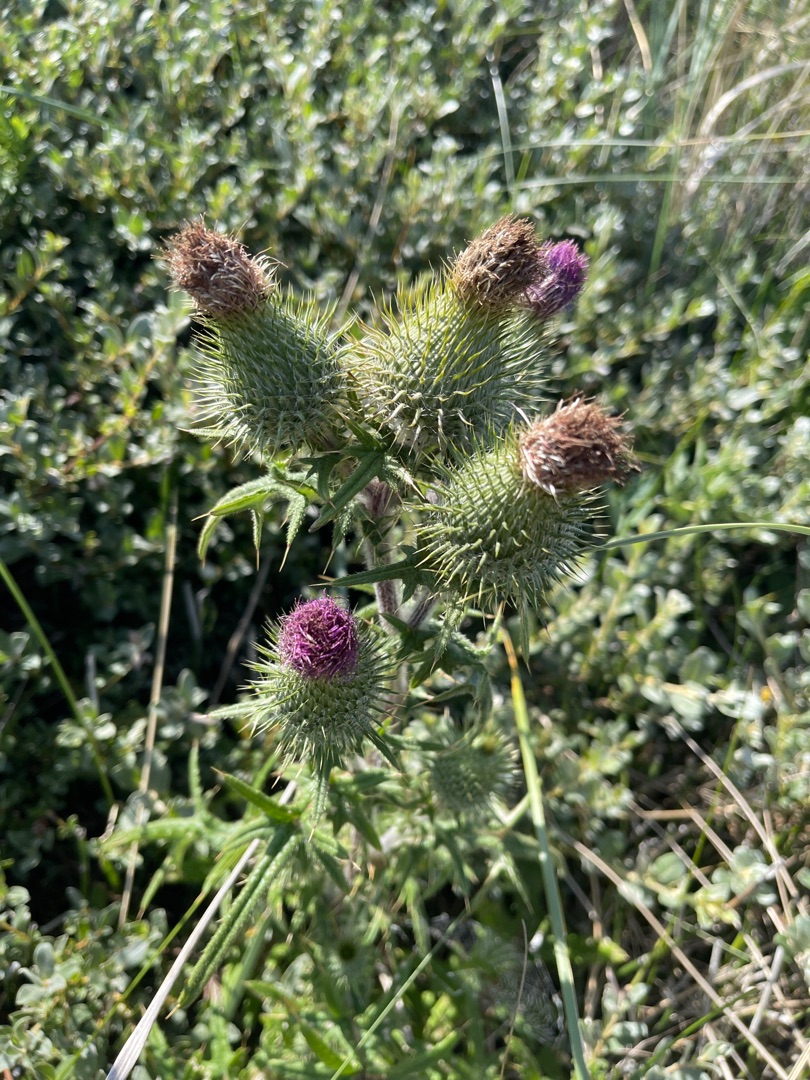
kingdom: Plantae
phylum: Tracheophyta
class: Magnoliopsida
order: Asterales
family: Asteraceae
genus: Cirsium
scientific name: Cirsium vulgare
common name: Horse-tidsel
